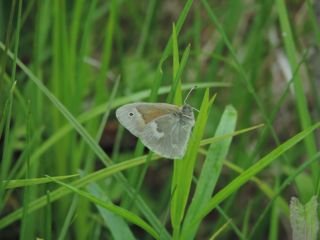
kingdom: Animalia
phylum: Arthropoda
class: Insecta
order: Lepidoptera
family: Nymphalidae
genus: Coenonympha
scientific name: Coenonympha tullia
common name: Large Heath
